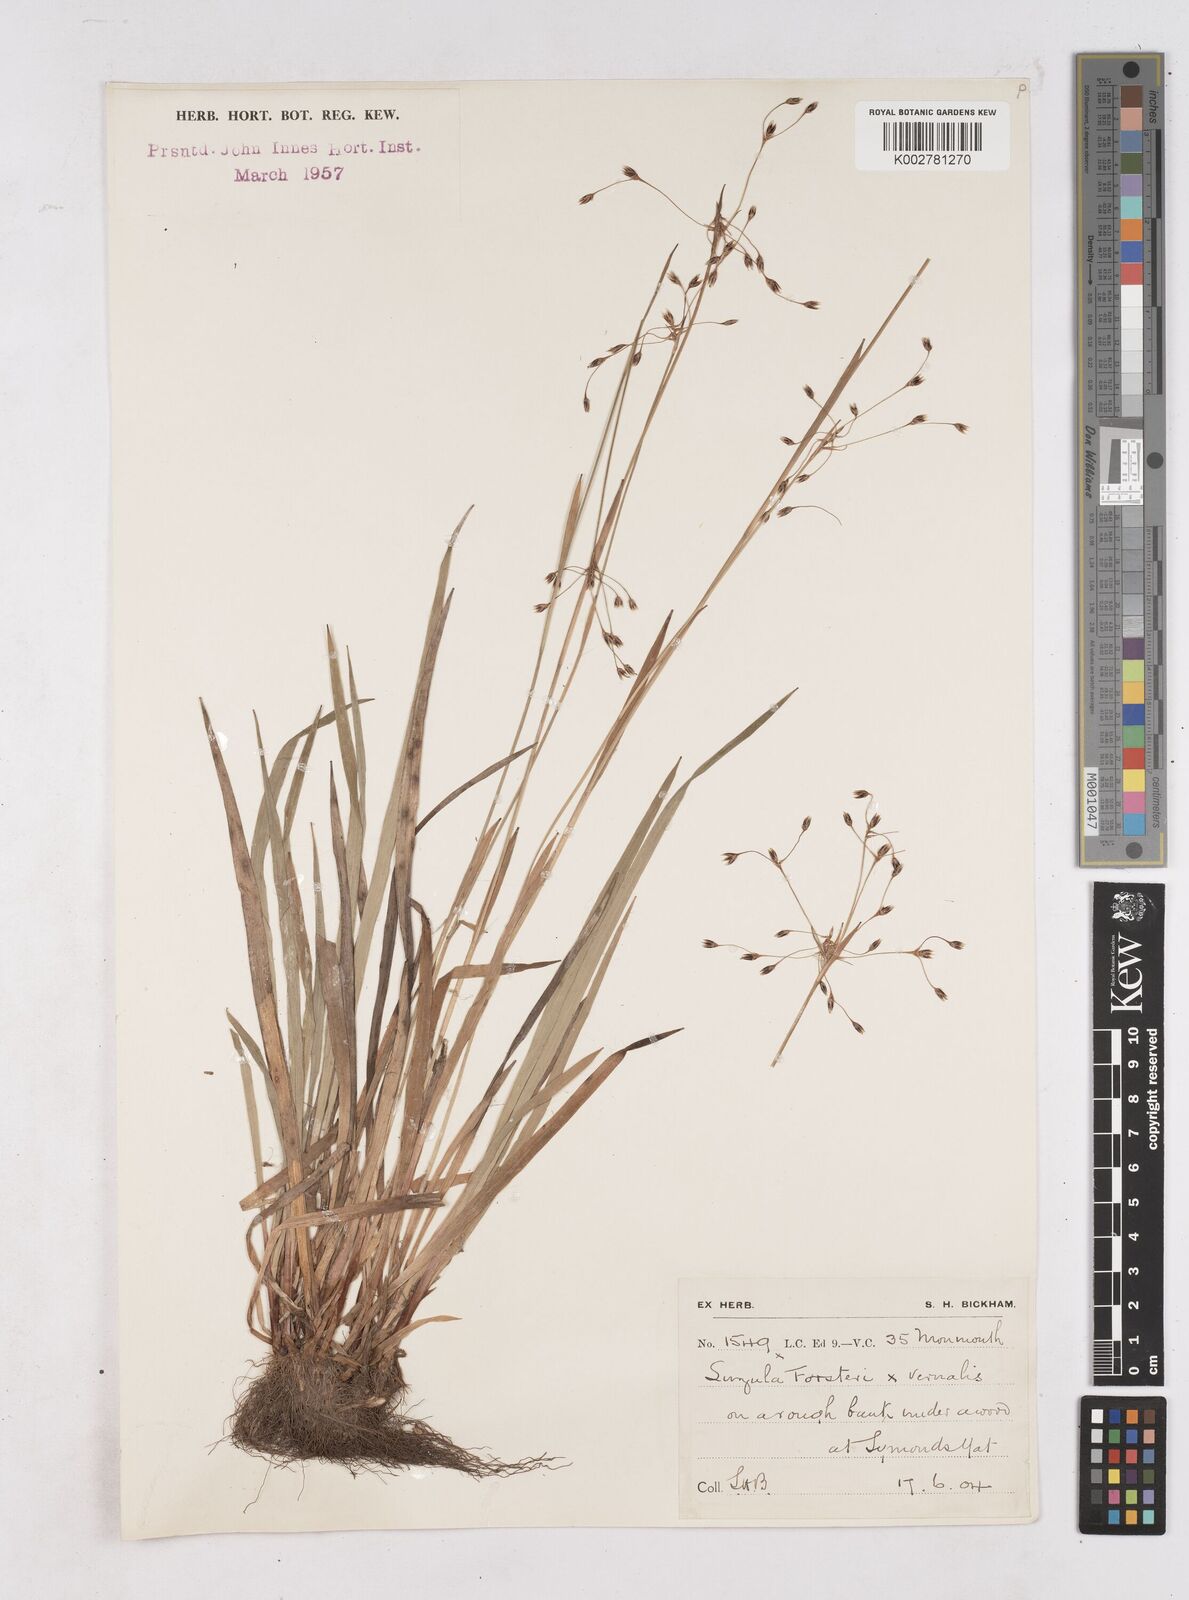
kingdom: Plantae
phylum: Tracheophyta
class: Liliopsida
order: Poales
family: Juncaceae
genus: Luzula
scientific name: Luzula borreri
